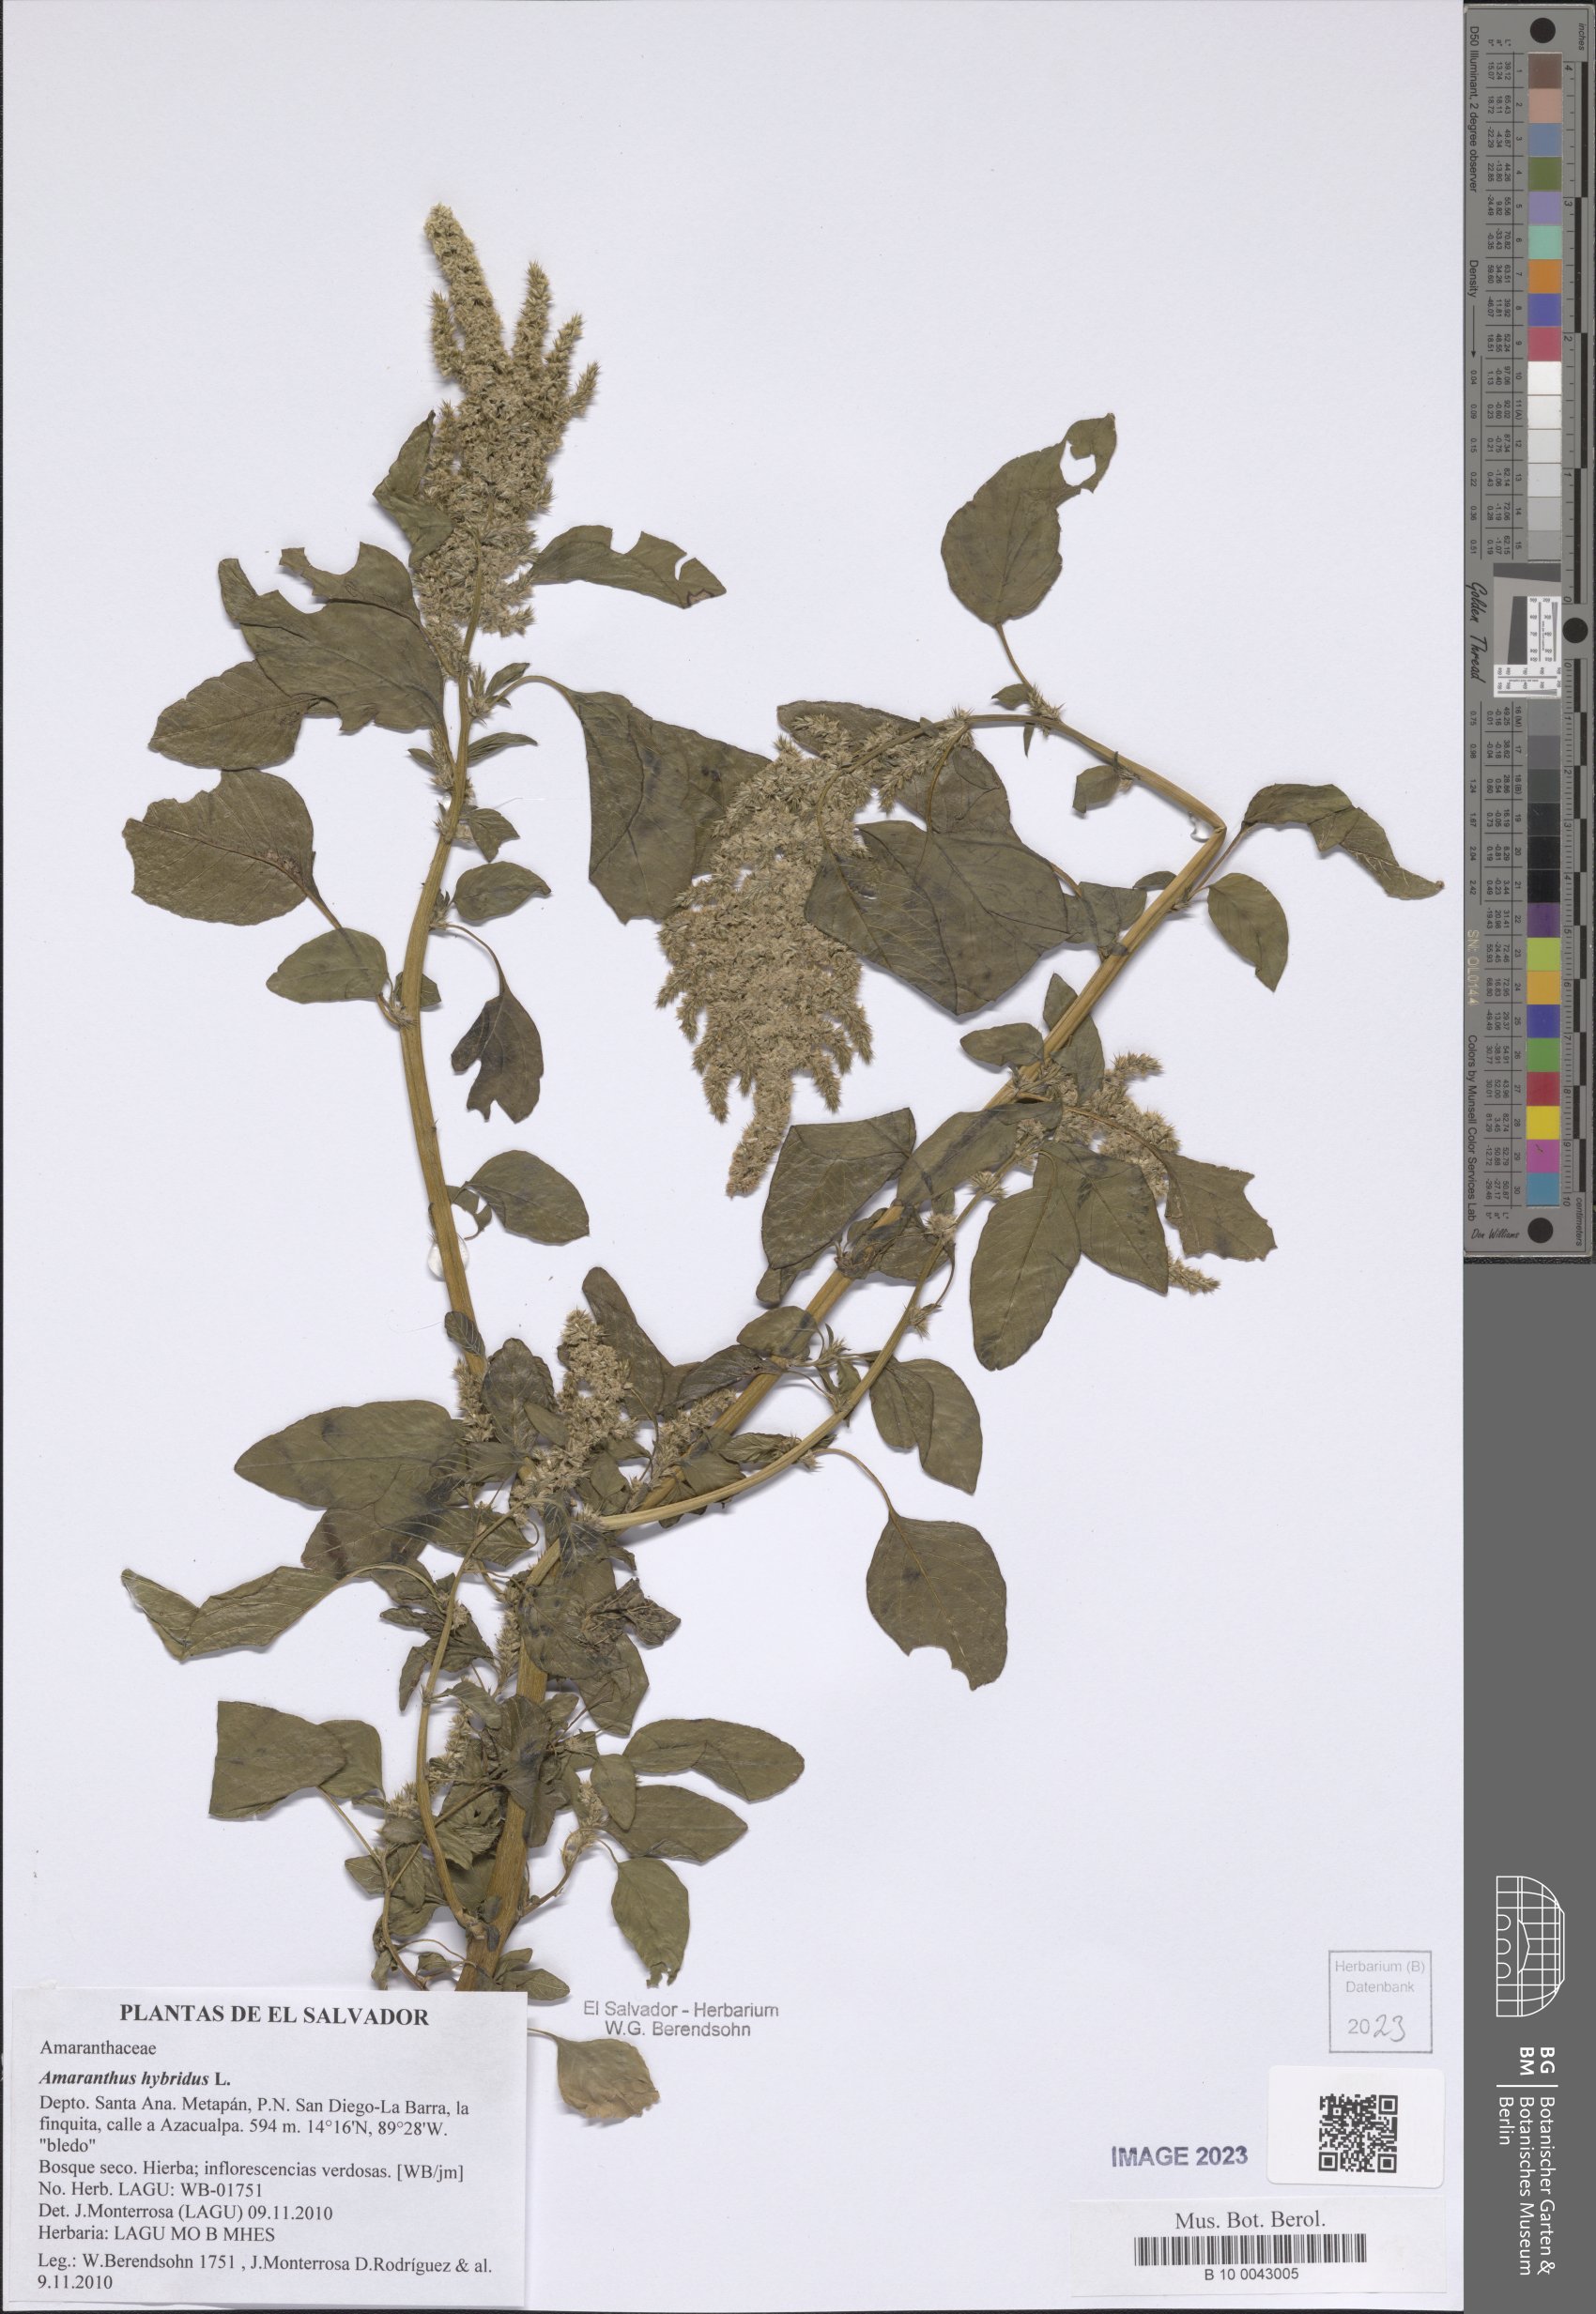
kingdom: Plantae
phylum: Tracheophyta
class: Magnoliopsida
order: Caryophyllales
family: Amaranthaceae
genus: Amaranthus
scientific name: Amaranthus hybridus
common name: Green amaranth
